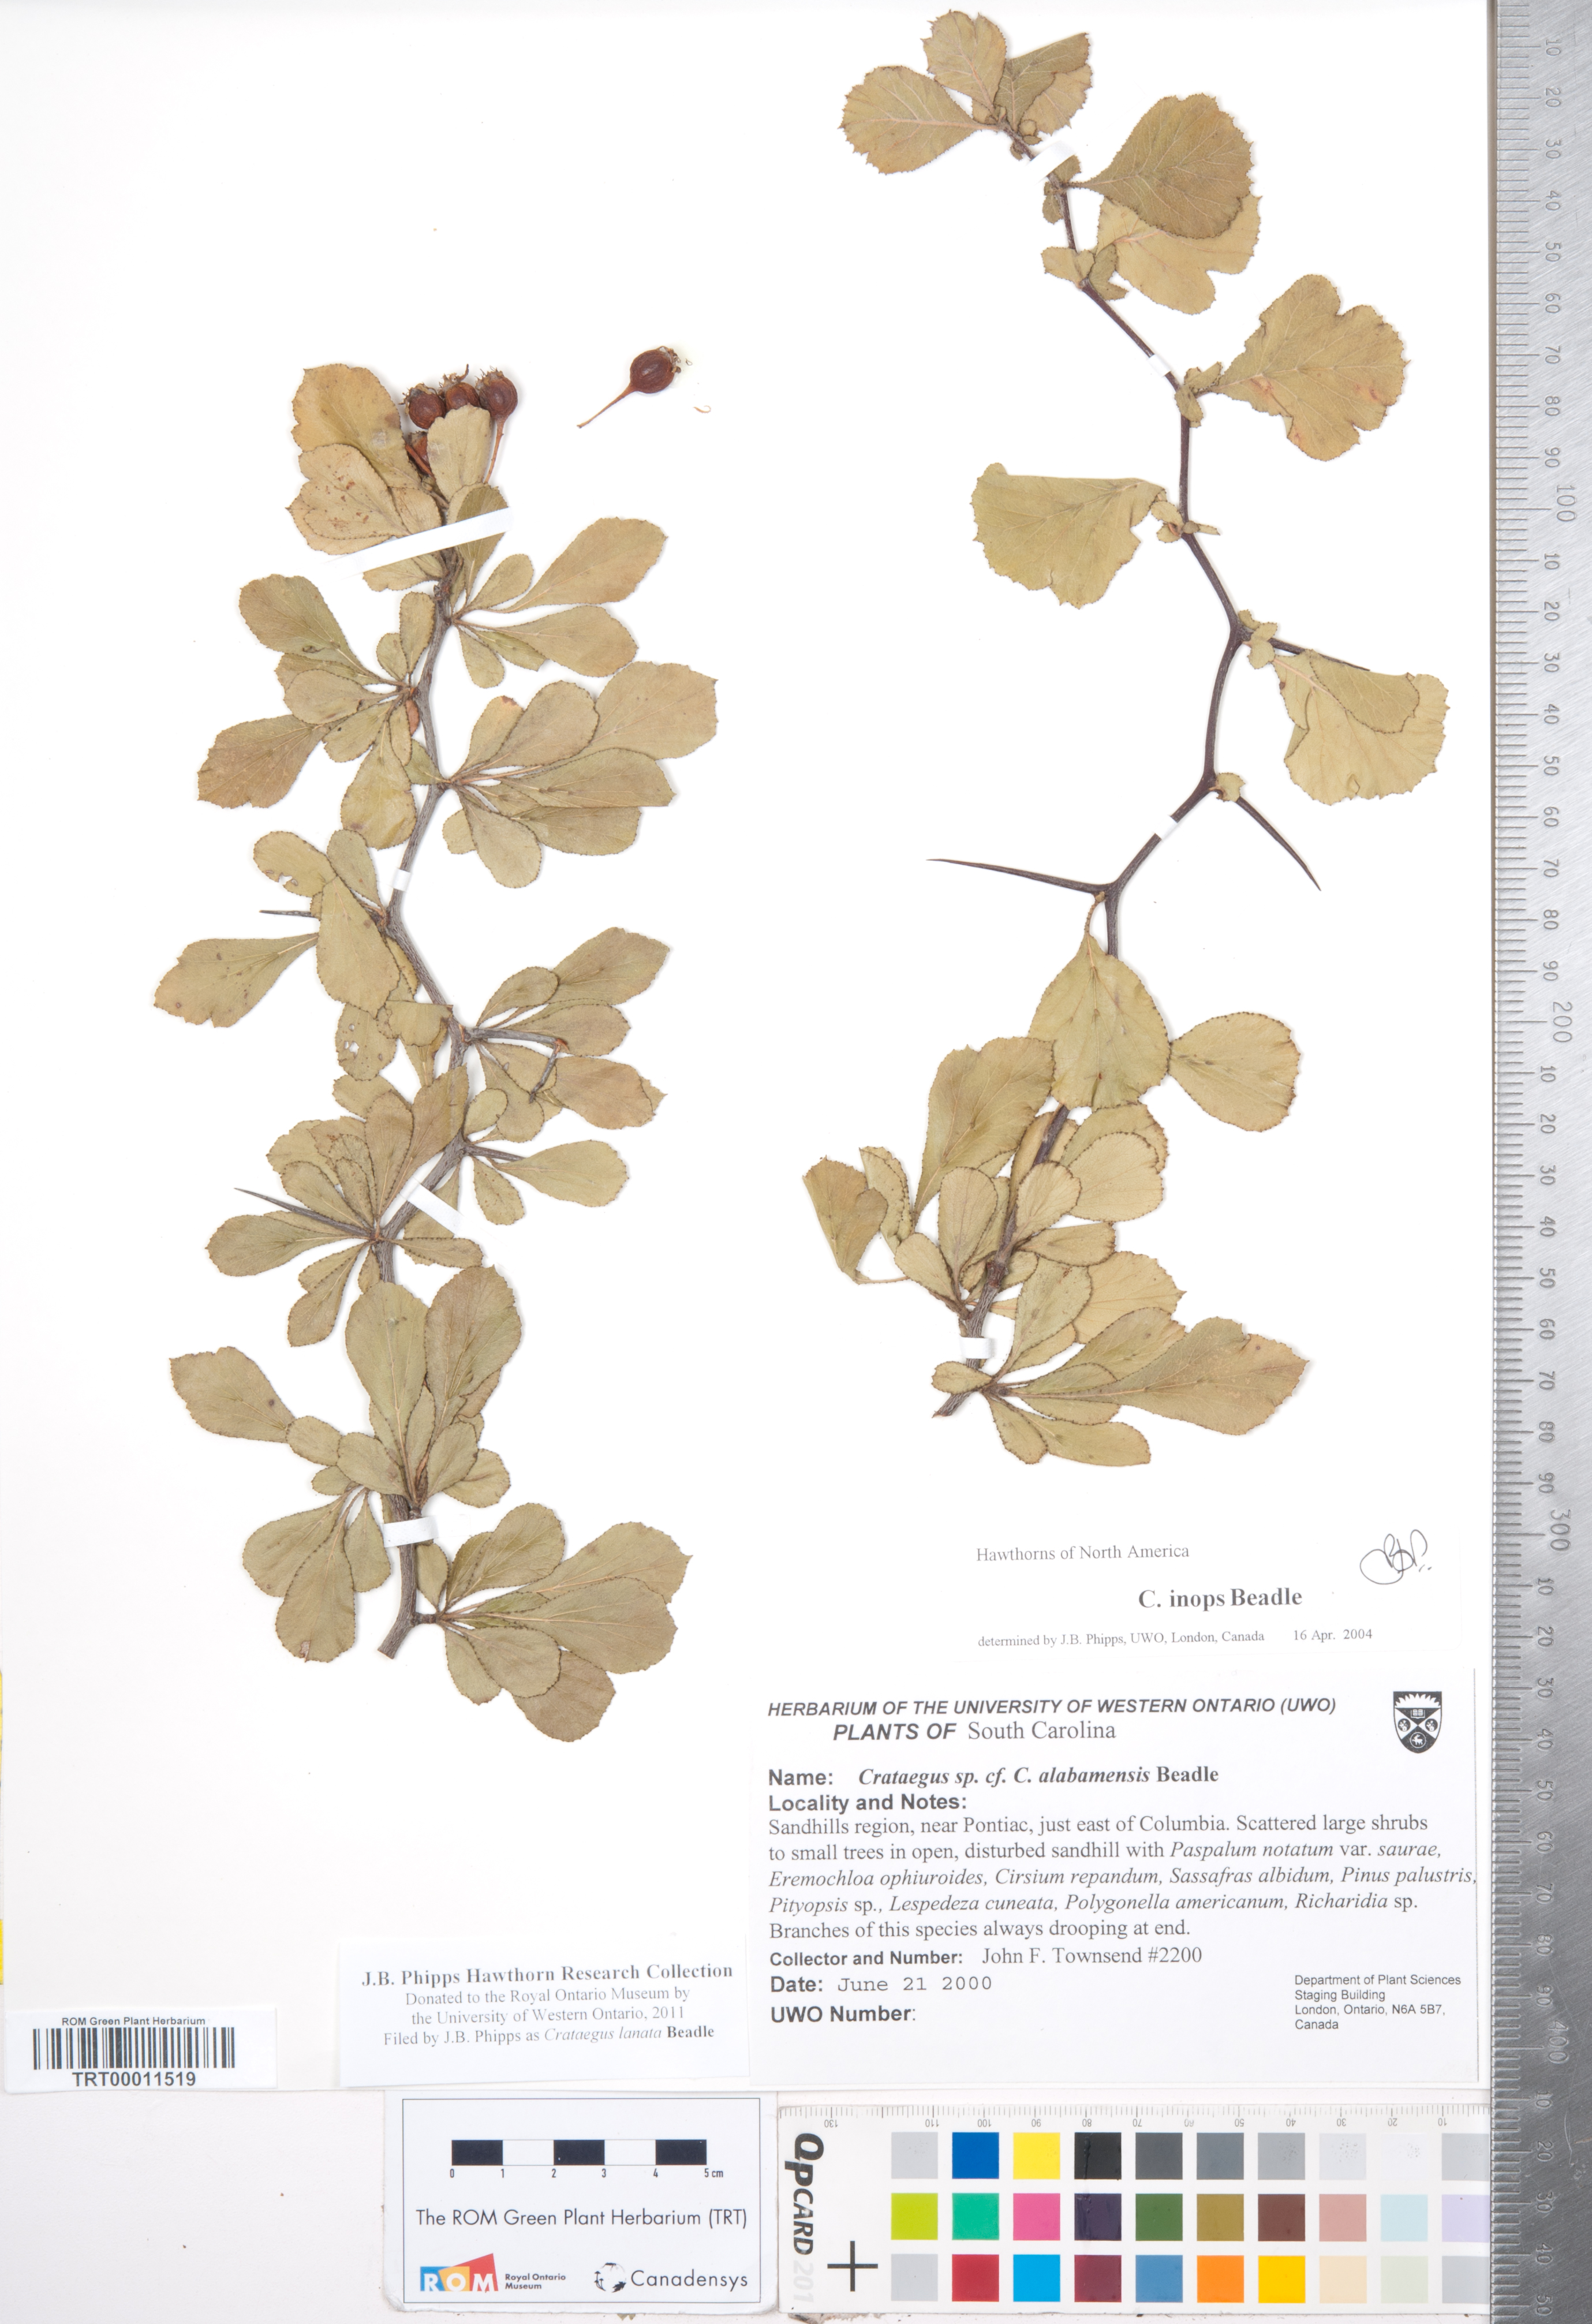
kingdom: Plantae
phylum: Tracheophyta
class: Magnoliopsida
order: Rosales
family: Rosaceae
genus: Crataegus
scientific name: Crataegus lassa
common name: Florida hawthorn
